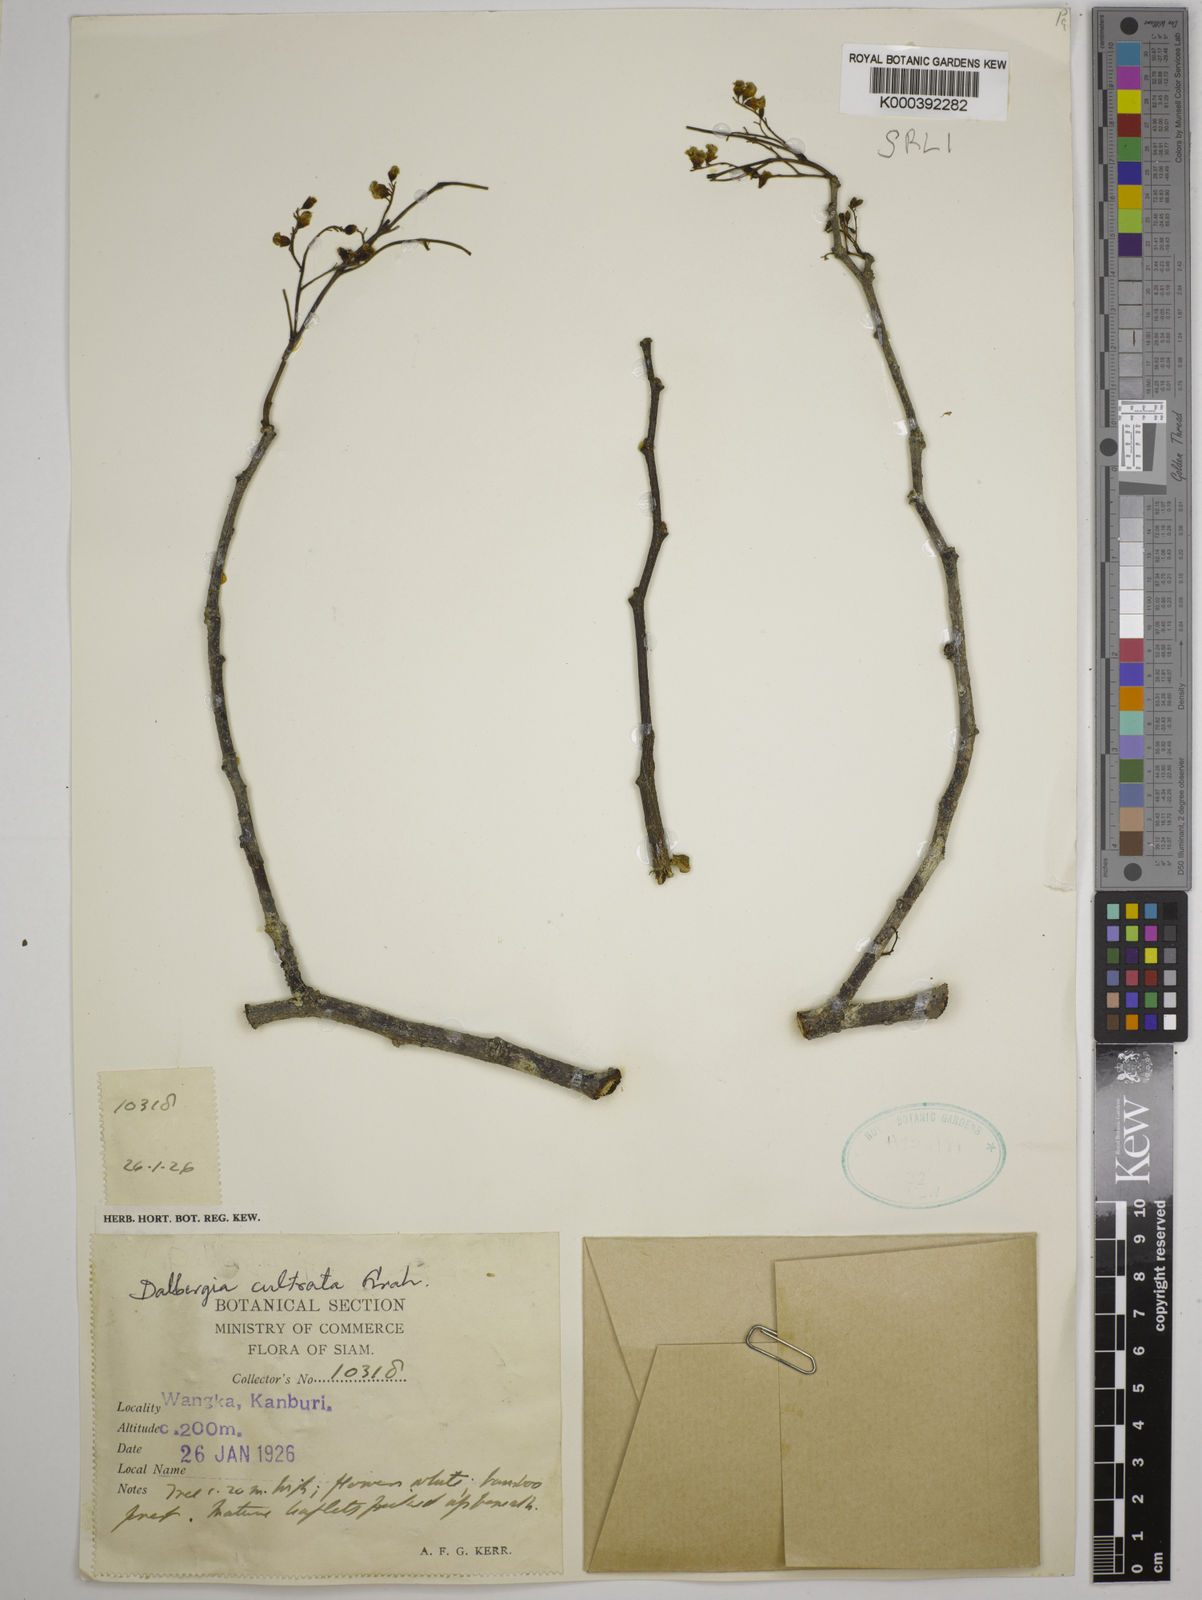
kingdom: Plantae
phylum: Tracheophyta
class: Magnoliopsida
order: Fabales
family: Fabaceae
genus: Dalbergia
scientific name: Dalbergia
